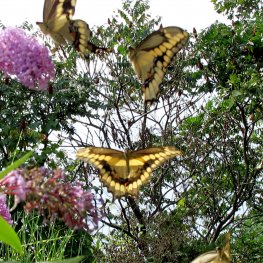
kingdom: Animalia
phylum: Arthropoda
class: Insecta
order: Lepidoptera
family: Papilionidae
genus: Papilio
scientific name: Papilio cresphontes
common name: Eastern Giant Swallowtail
